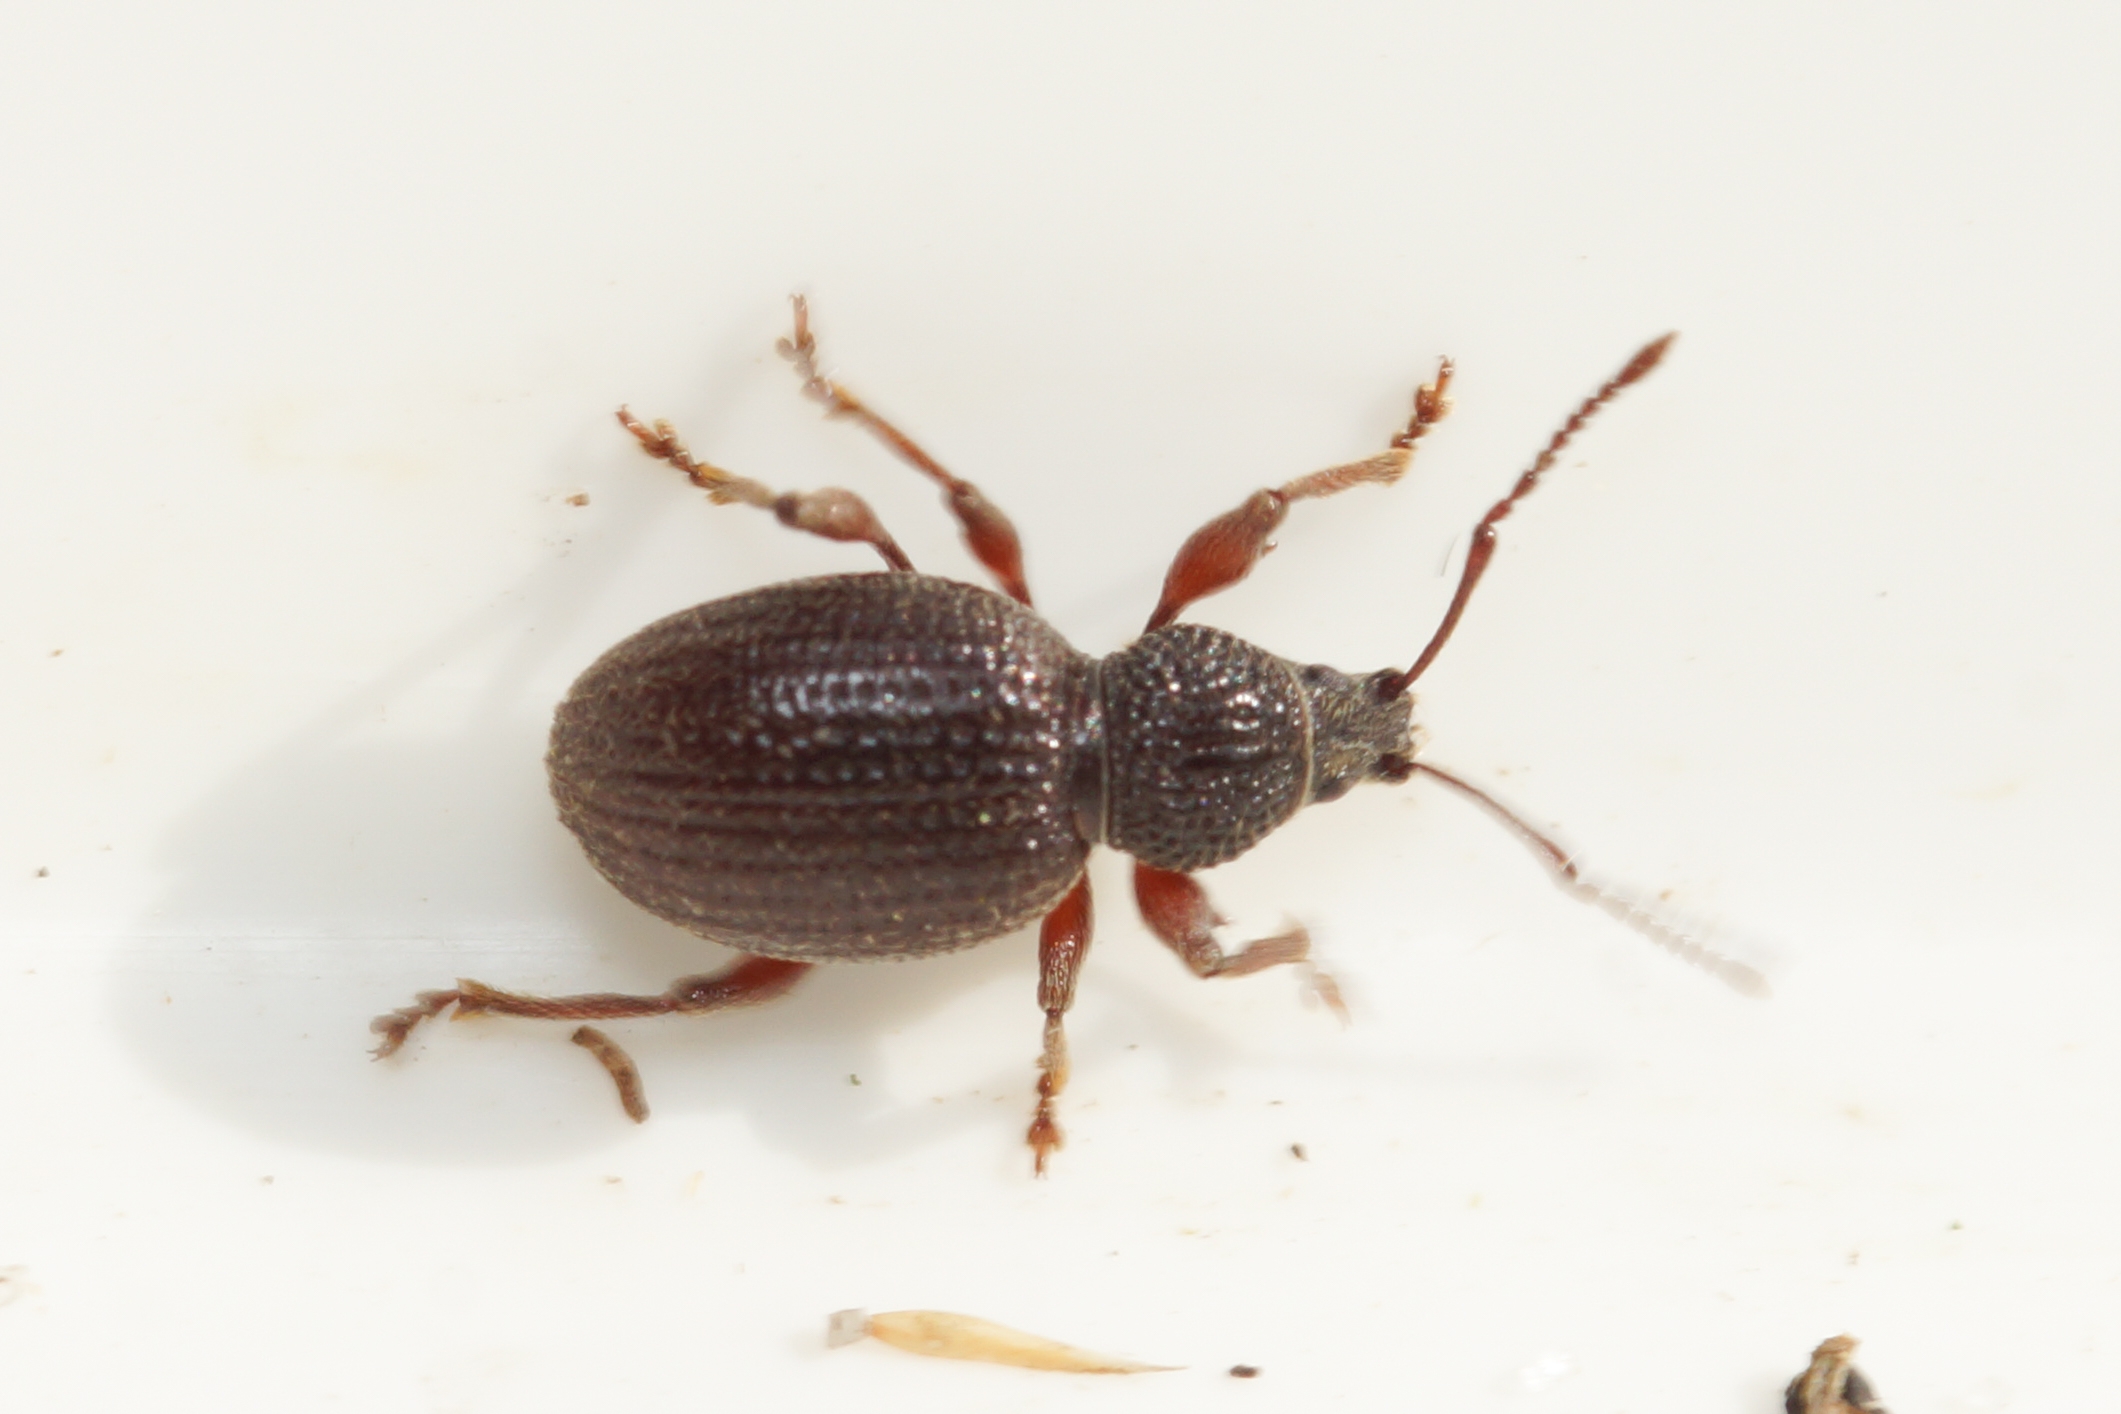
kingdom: Animalia
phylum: Arthropoda
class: Insecta
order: Coleoptera
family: Curculionidae
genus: Otiorhynchus
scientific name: Otiorhynchus ovatus
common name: Jordbærøresnudebille
